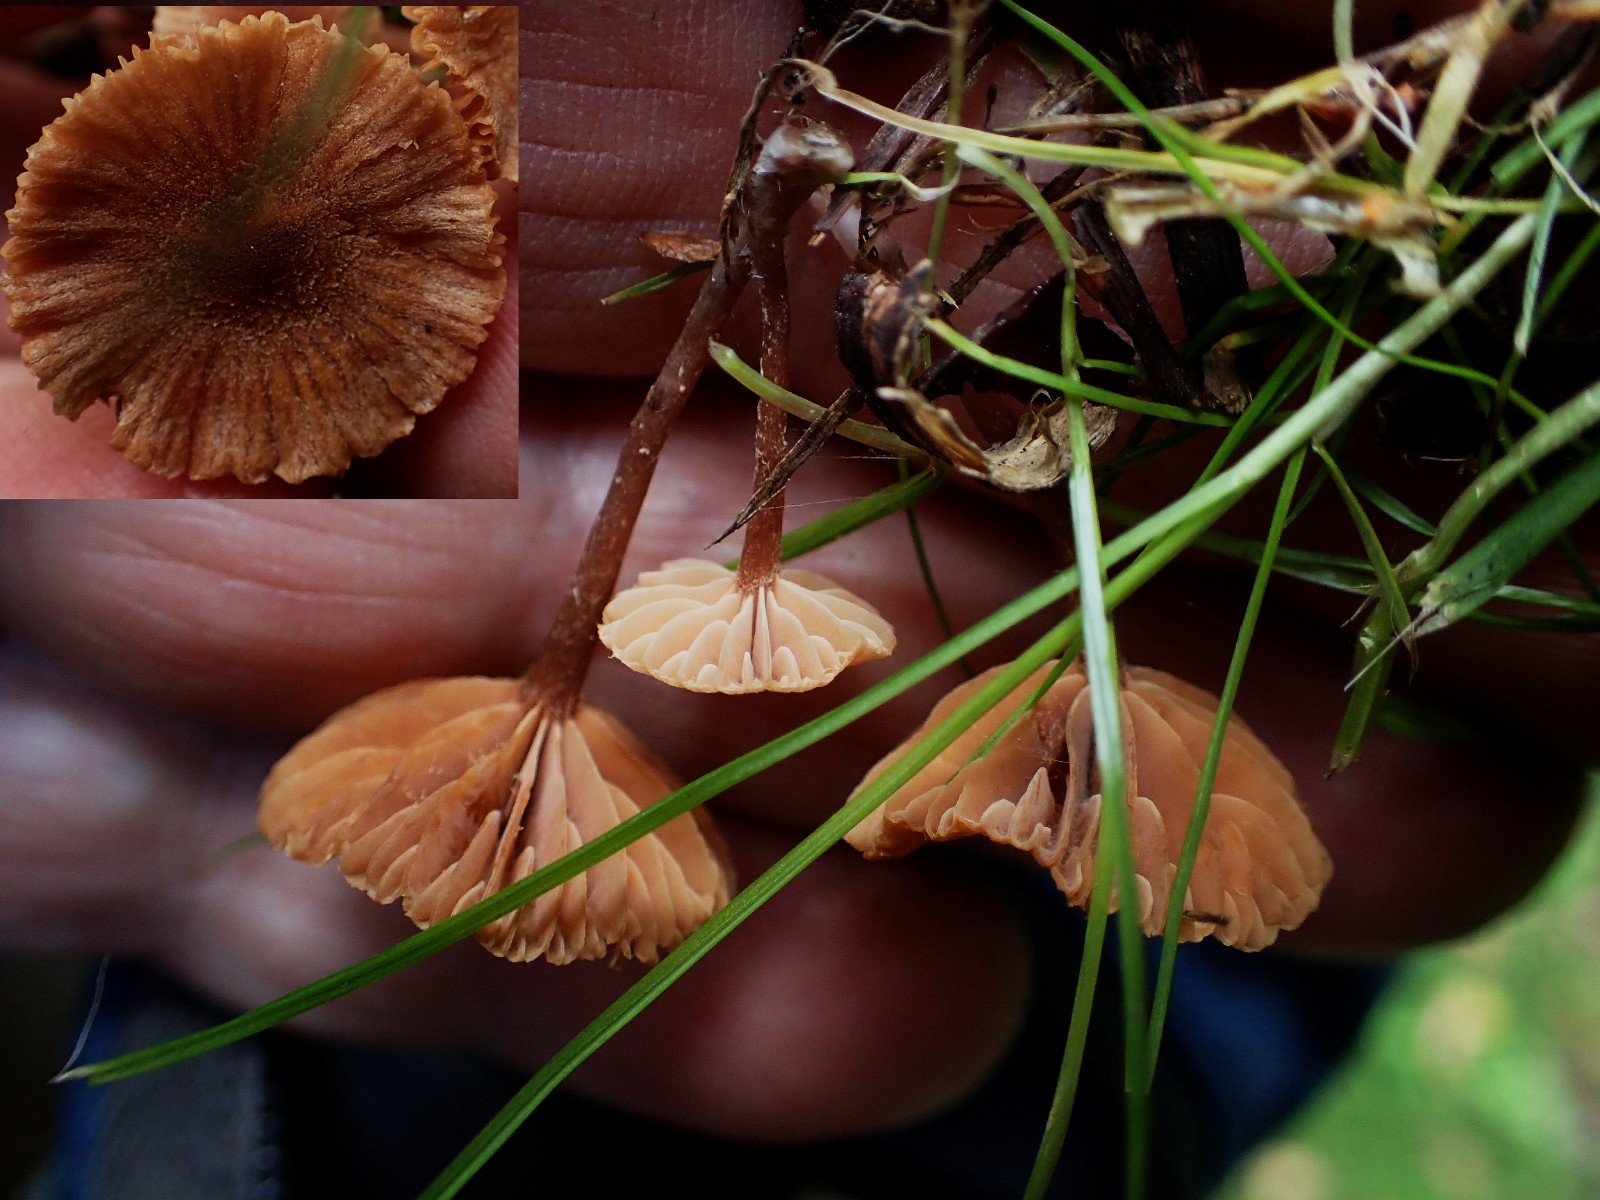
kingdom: Fungi
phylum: Basidiomycota
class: Agaricomycetes
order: Agaricales
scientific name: Agaricales
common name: champignonordenen
